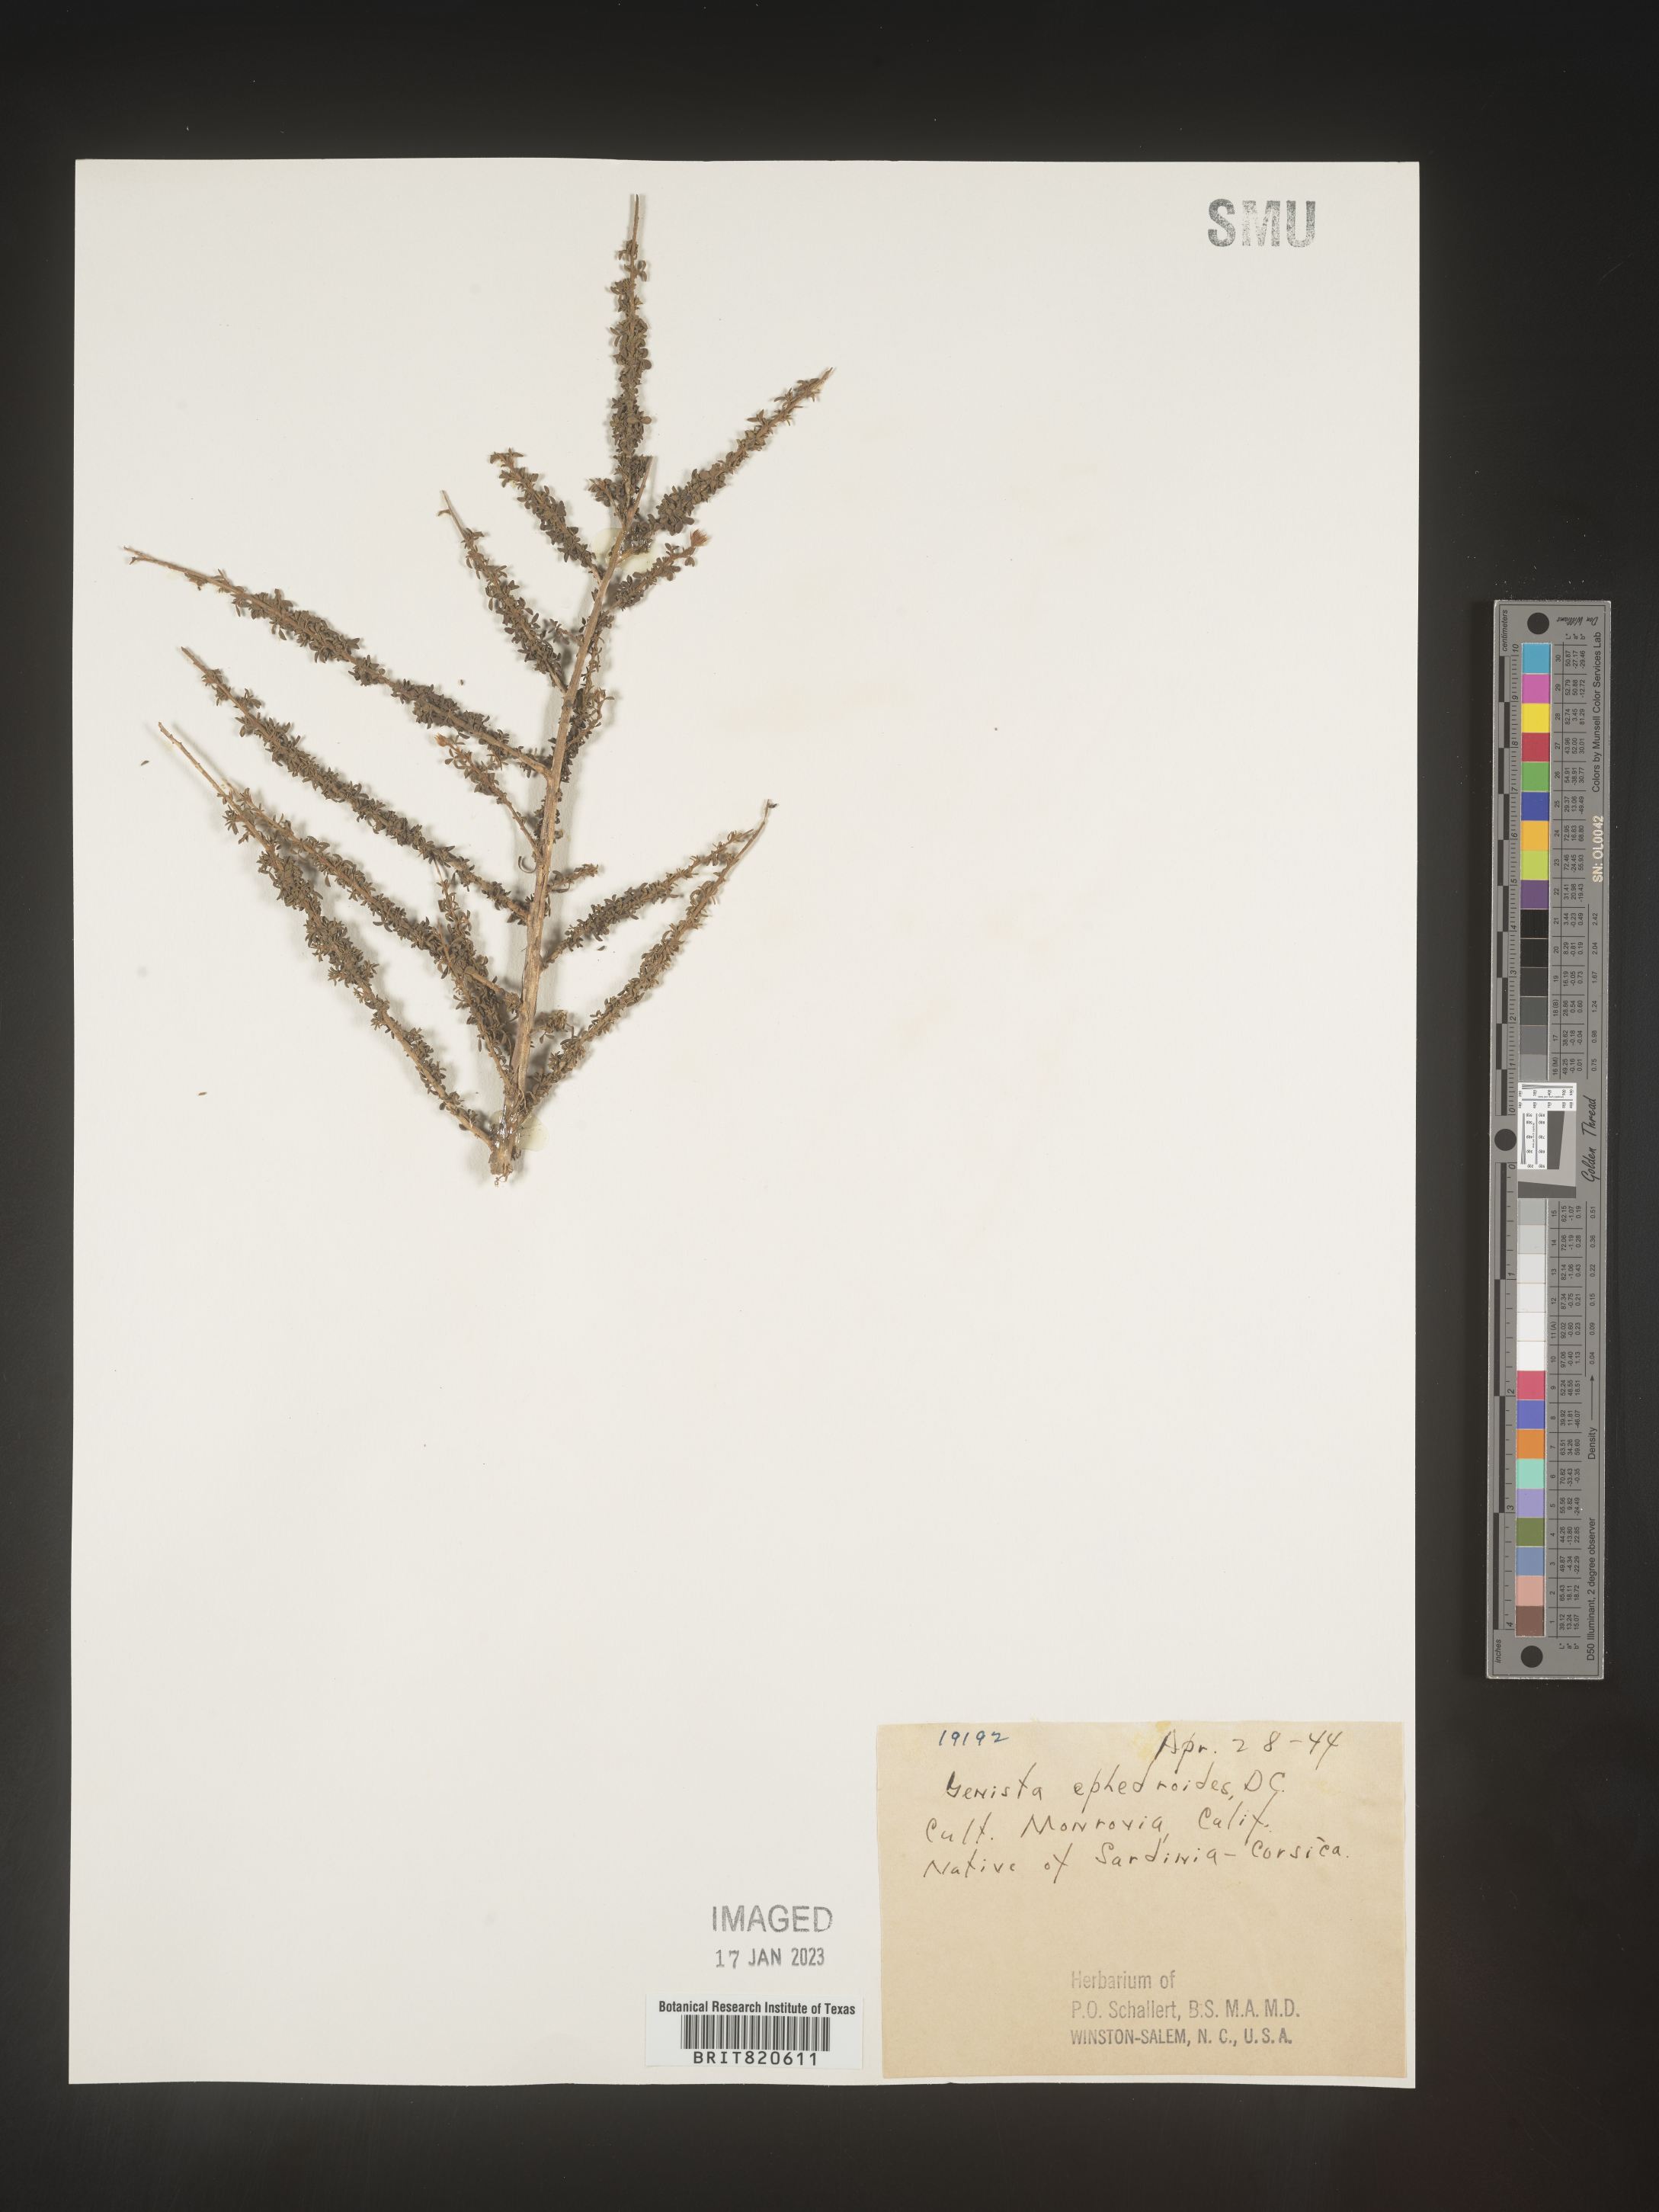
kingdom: Plantae
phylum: Tracheophyta
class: Magnoliopsida
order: Fabales
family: Fabaceae
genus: Genista
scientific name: Genista
